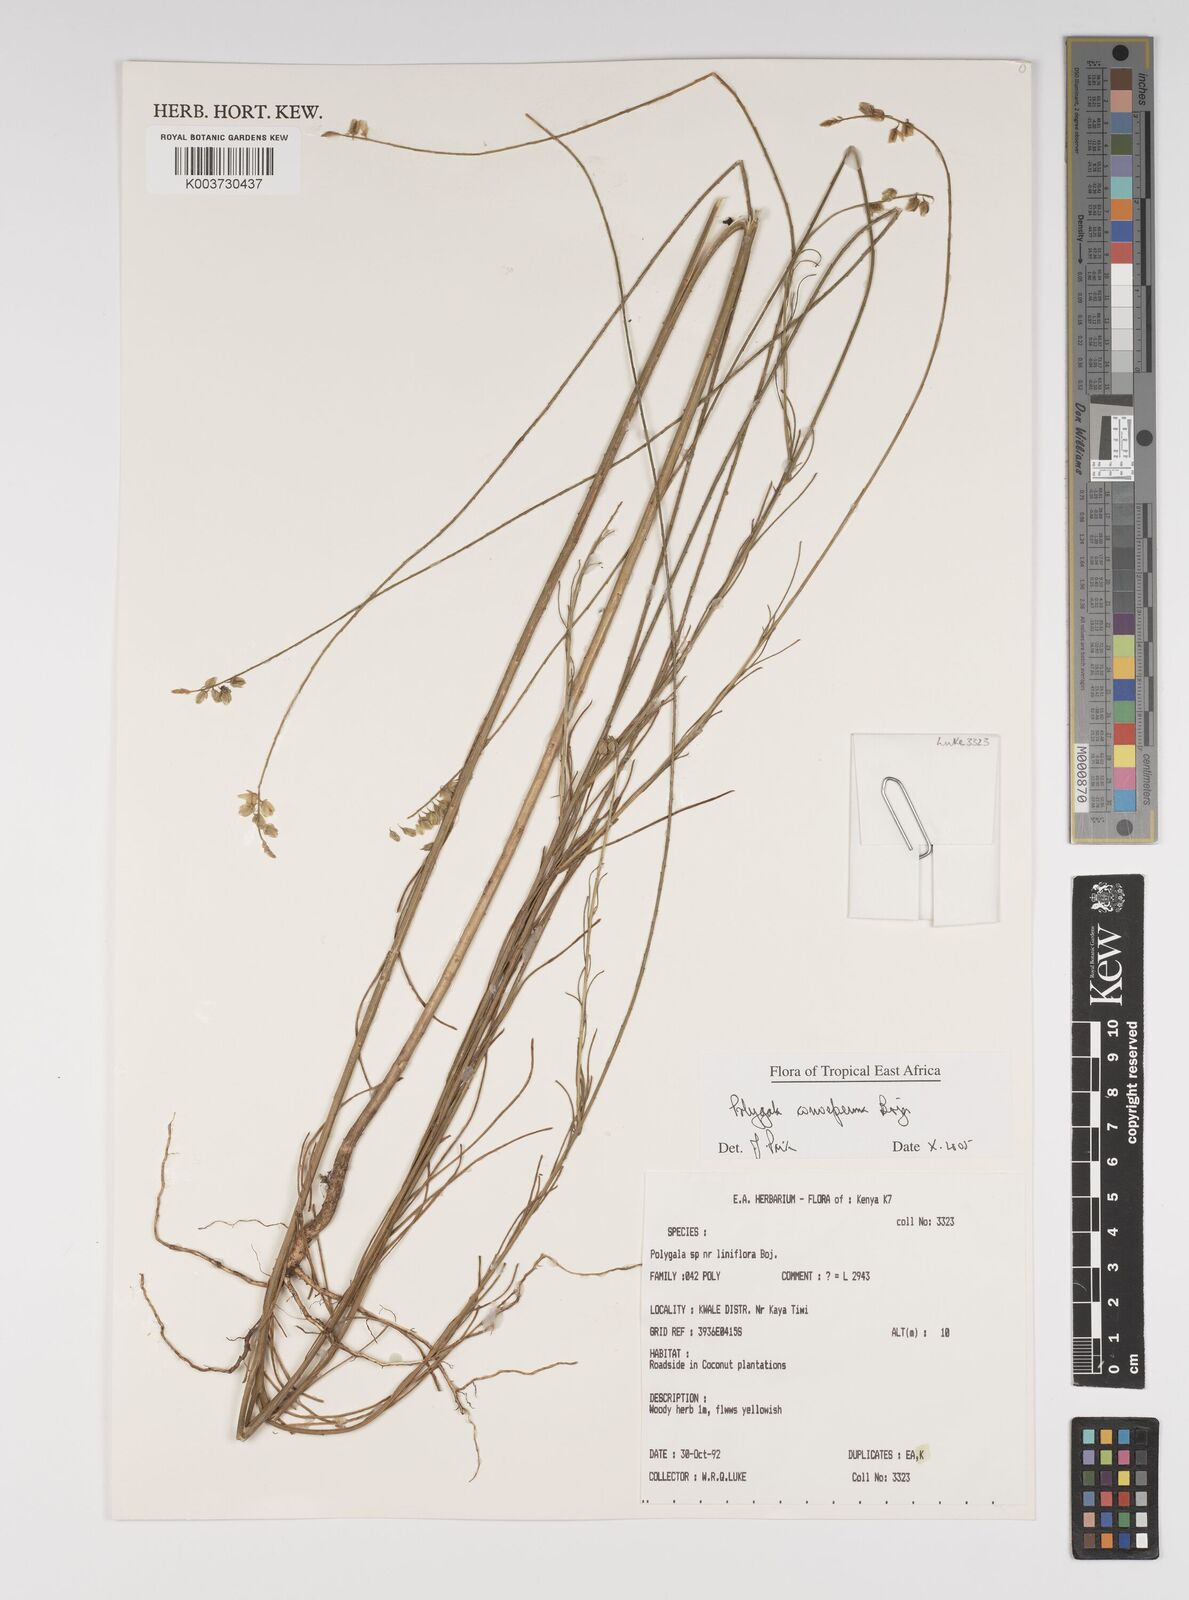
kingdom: Plantae
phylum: Tracheophyta
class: Magnoliopsida
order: Fabales
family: Polygalaceae
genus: Polygala
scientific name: Polygala conosperma
